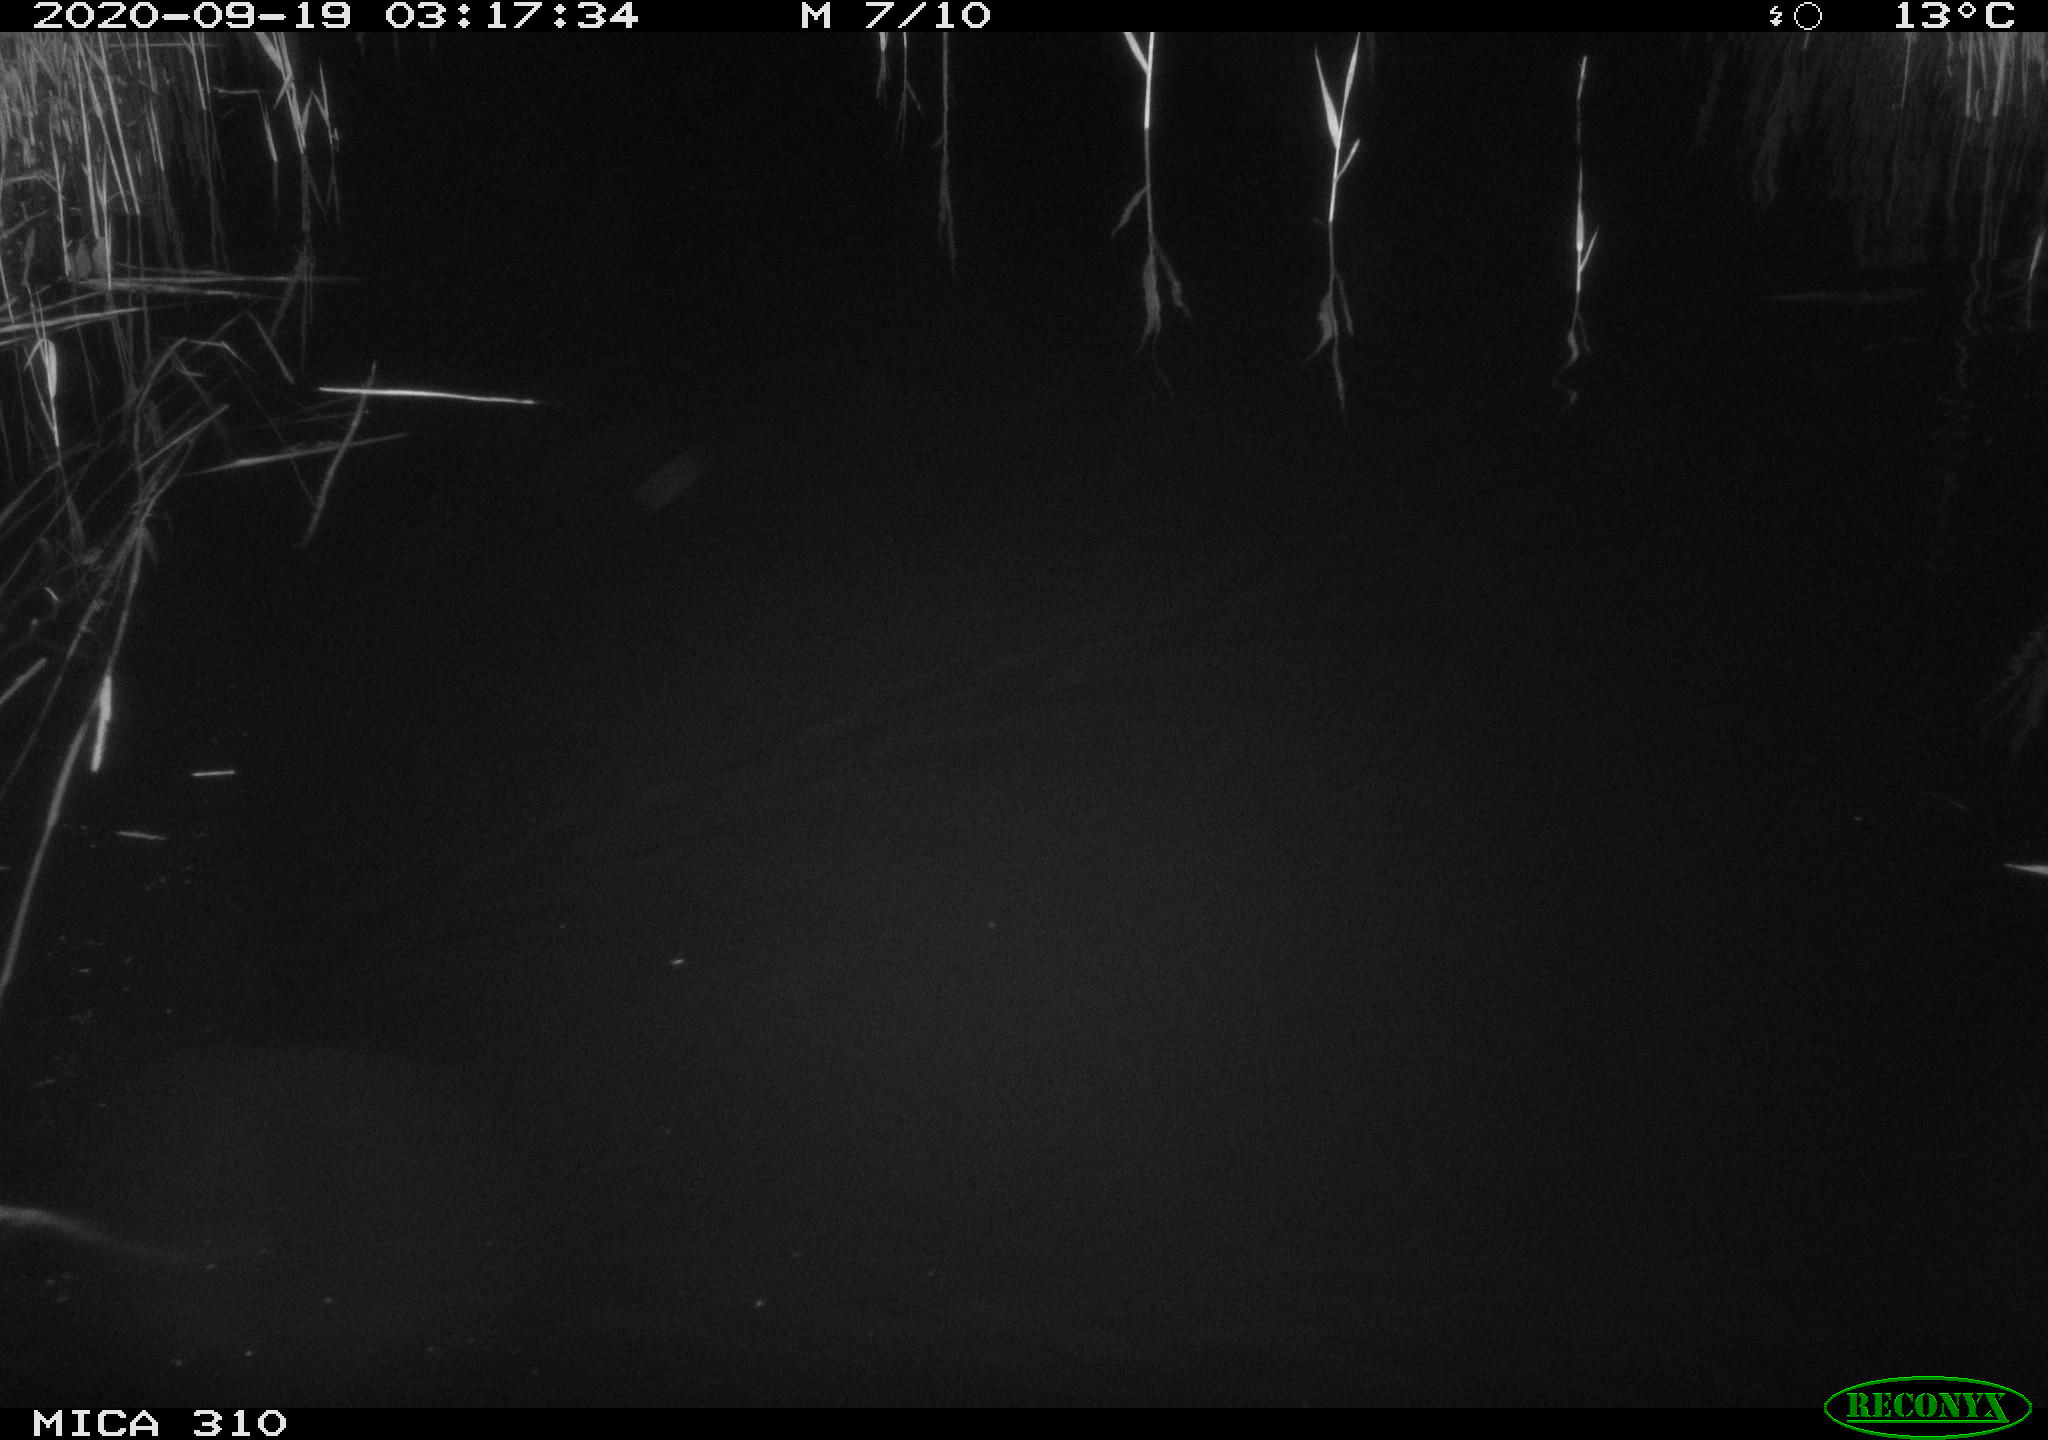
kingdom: Animalia
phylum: Chordata
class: Mammalia
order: Rodentia
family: Muridae
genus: Rattus
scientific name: Rattus norvegicus
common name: Brown rat
